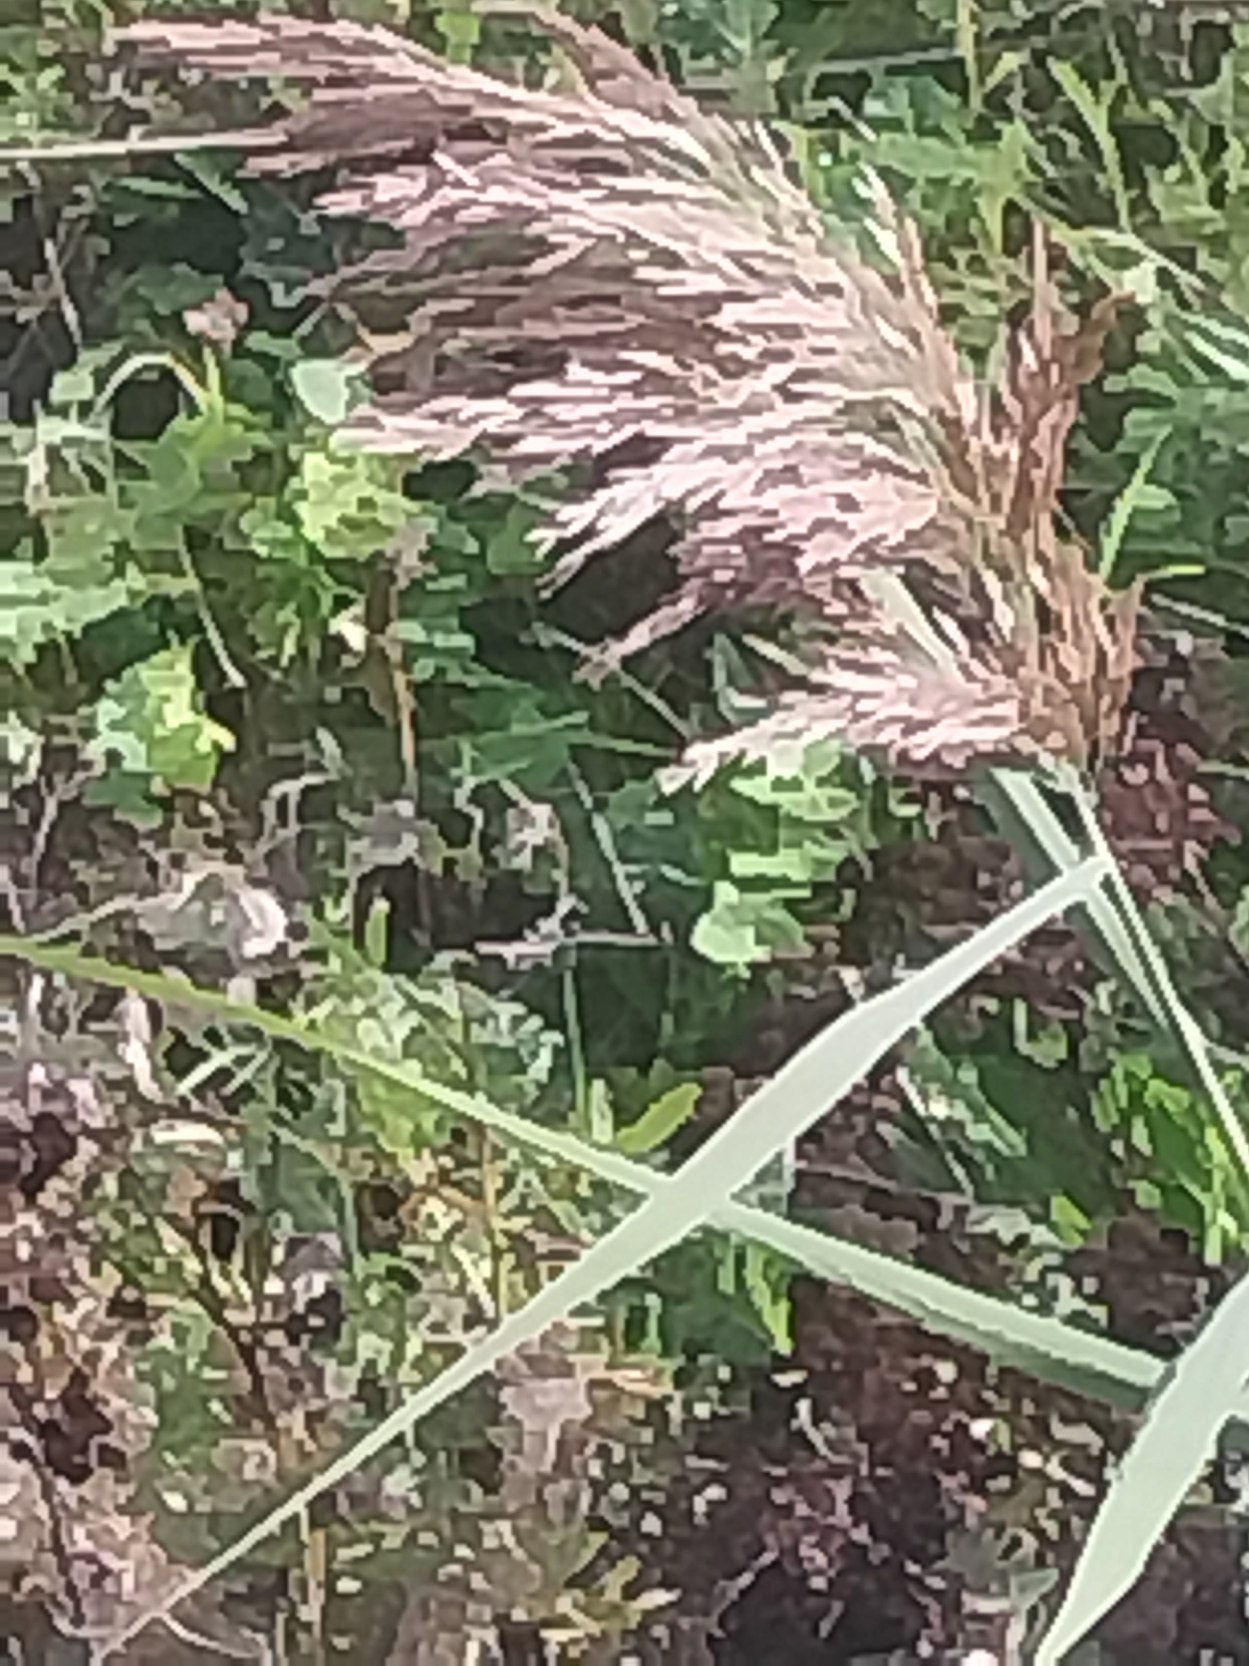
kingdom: Plantae
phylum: Tracheophyta
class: Liliopsida
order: Poales
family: Poaceae
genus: Phragmites
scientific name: Phragmites australis
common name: Tagrør
